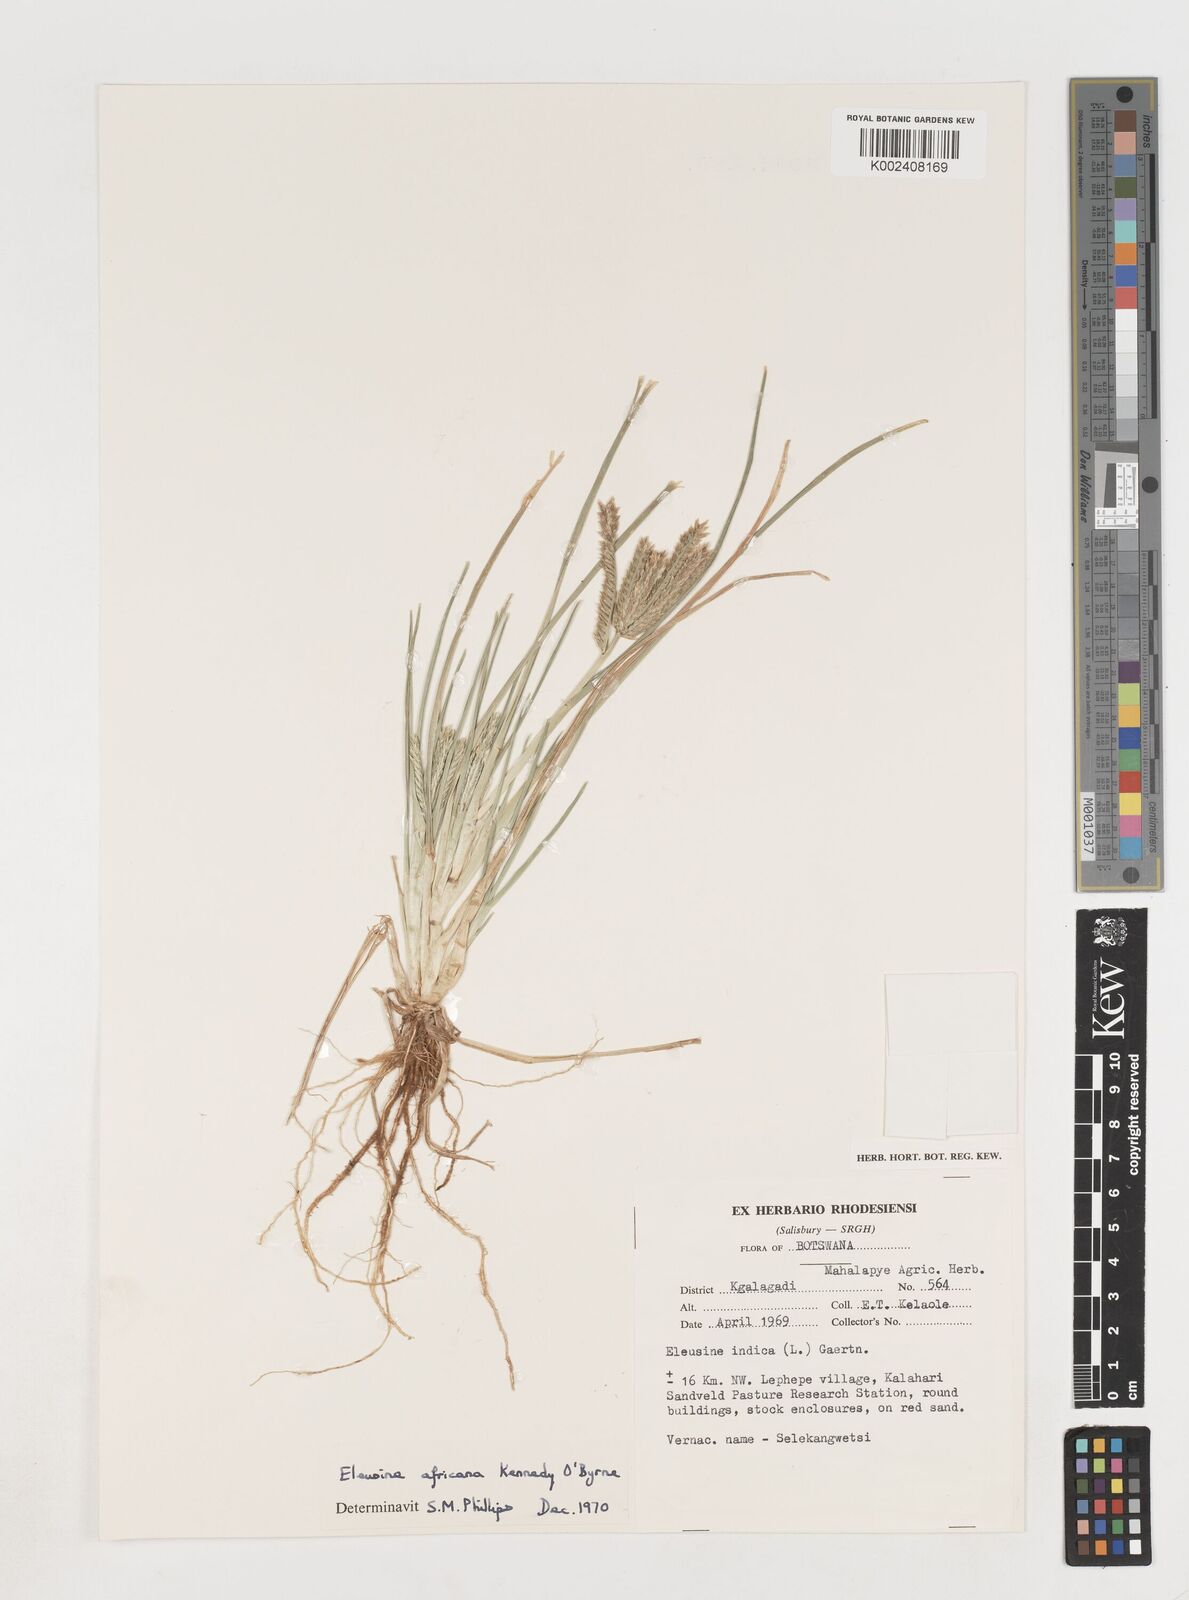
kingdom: Plantae
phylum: Tracheophyta
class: Liliopsida
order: Poales
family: Poaceae
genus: Eleusine
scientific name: Eleusine africana
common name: Wild african finger millet
